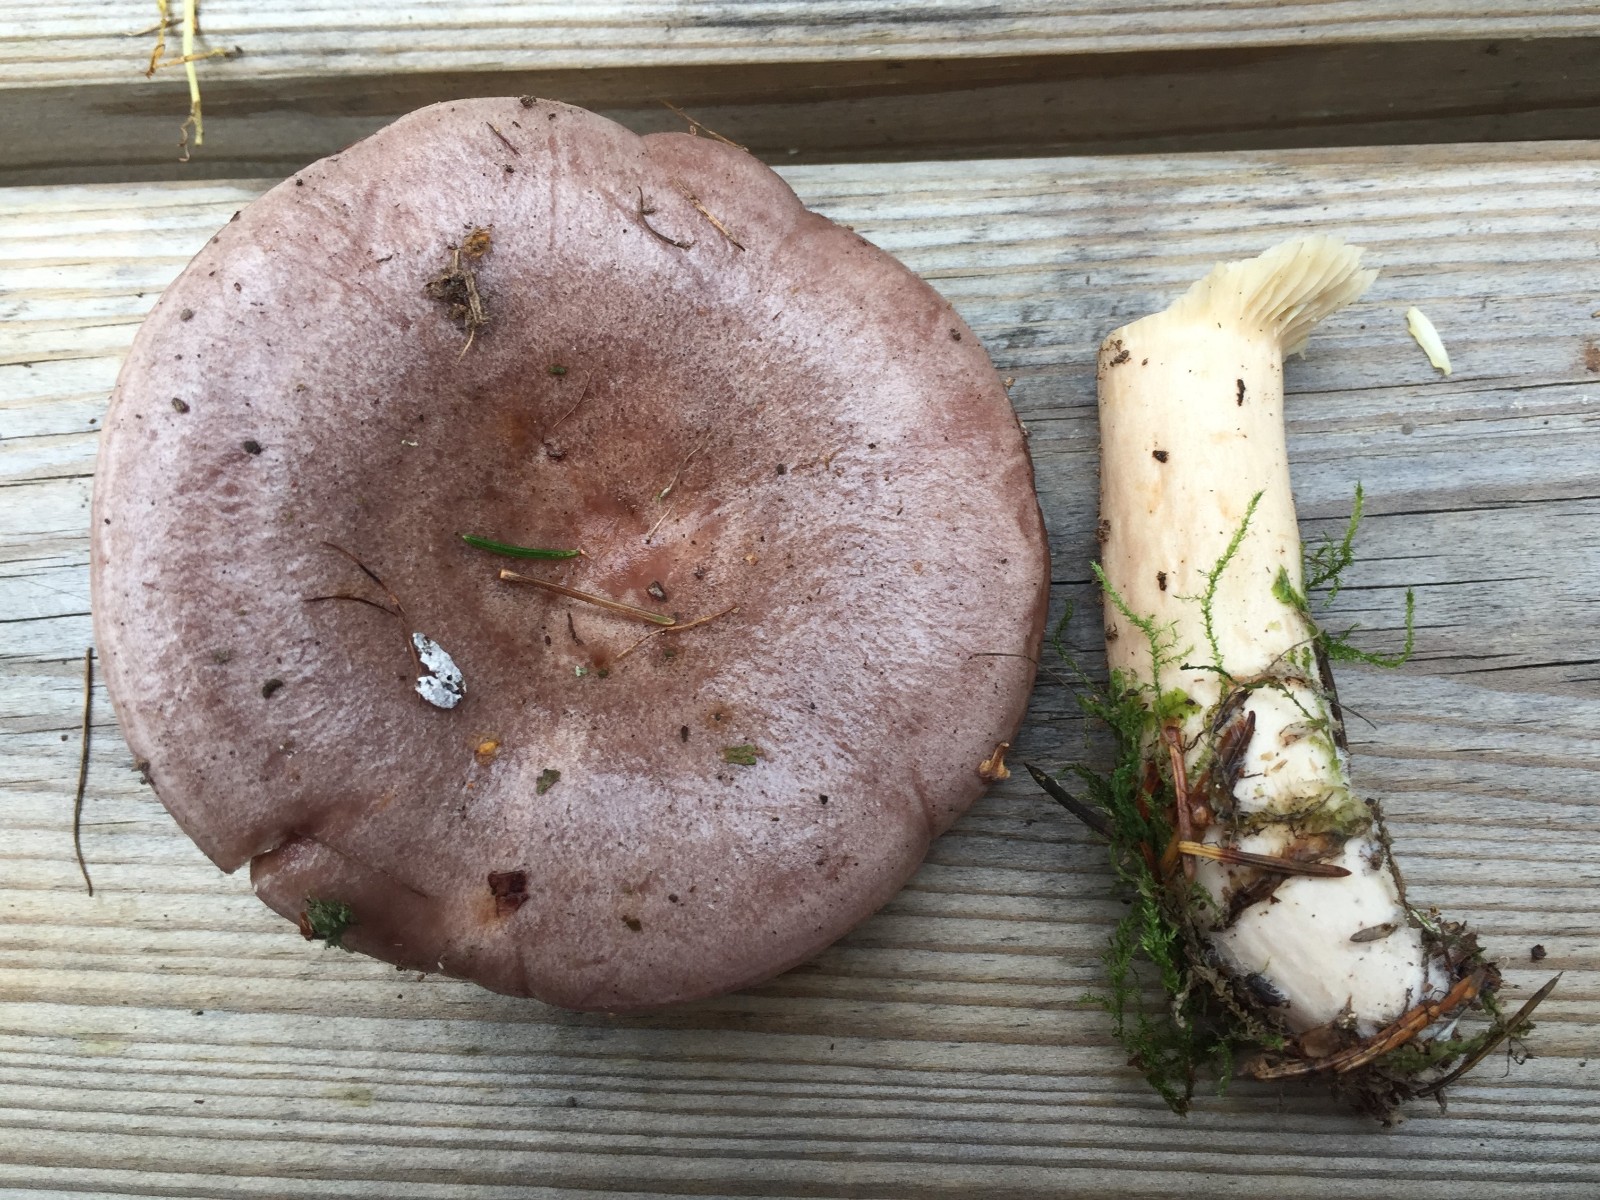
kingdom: Fungi
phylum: Basidiomycota
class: Agaricomycetes
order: Russulales
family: Russulaceae
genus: Lactarius
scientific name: Lactarius trivialis
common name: nordisk mælkehat
